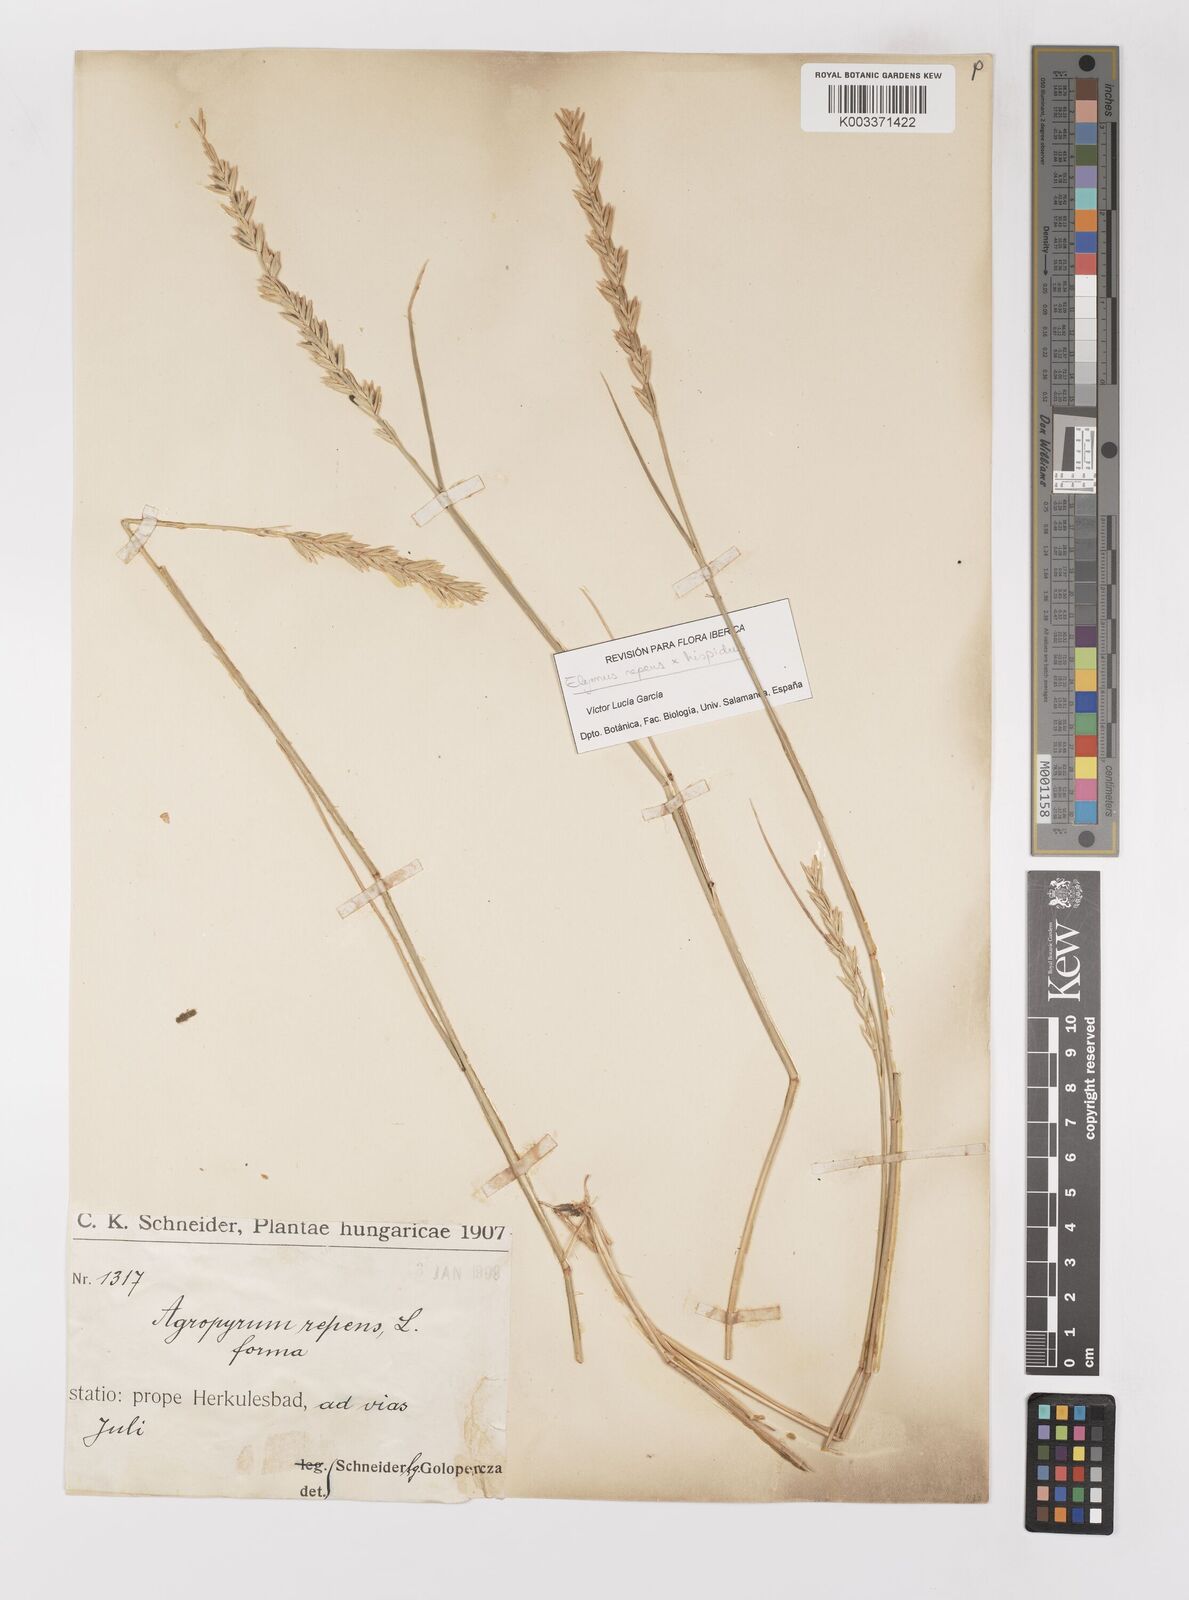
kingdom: Plantae
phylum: Tracheophyta
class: Liliopsida
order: Poales
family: Poaceae
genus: Elymus
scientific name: Elymus repens
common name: Quackgrass
